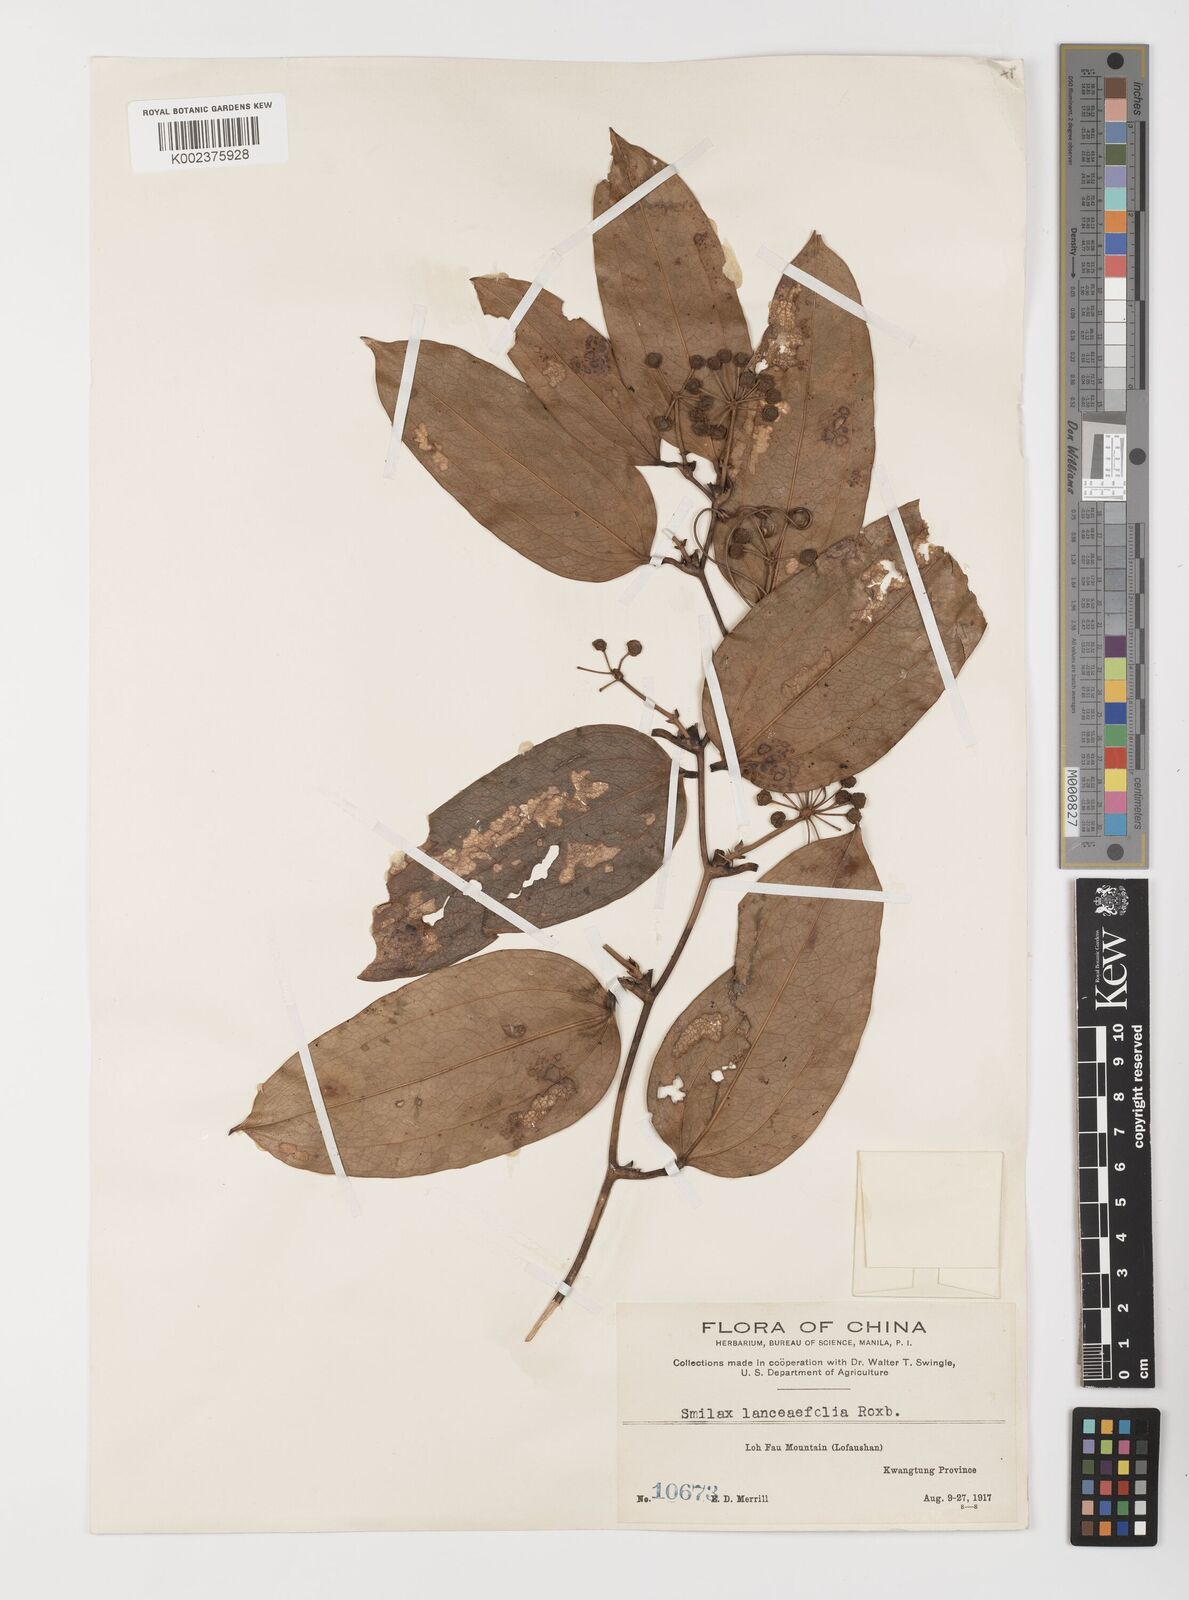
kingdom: Plantae
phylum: Tracheophyta
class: Liliopsida
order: Liliales
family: Smilacaceae
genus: Smilax
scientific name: Smilax lanceifolia
